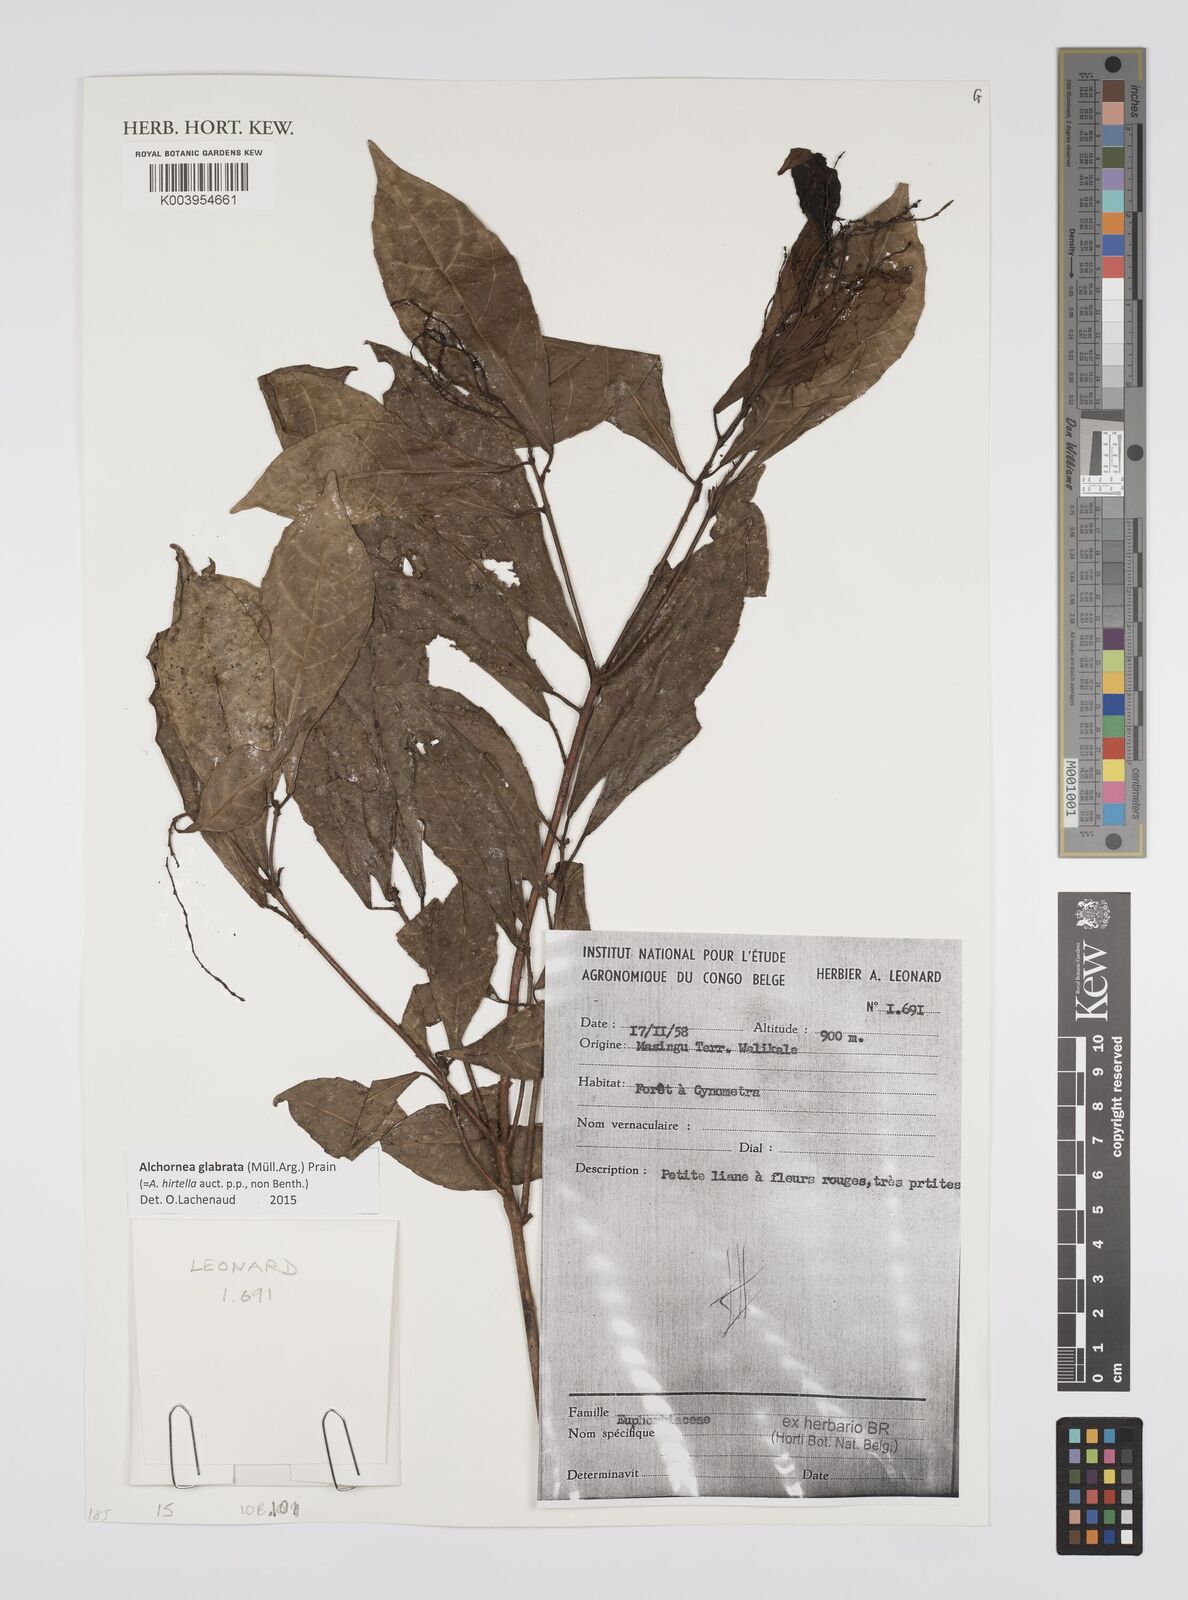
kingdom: Plantae
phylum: Tracheophyta
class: Magnoliopsida
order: Malpighiales
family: Euphorbiaceae
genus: Alchornea
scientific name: Alchornea hirtella
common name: Forest bead-string
